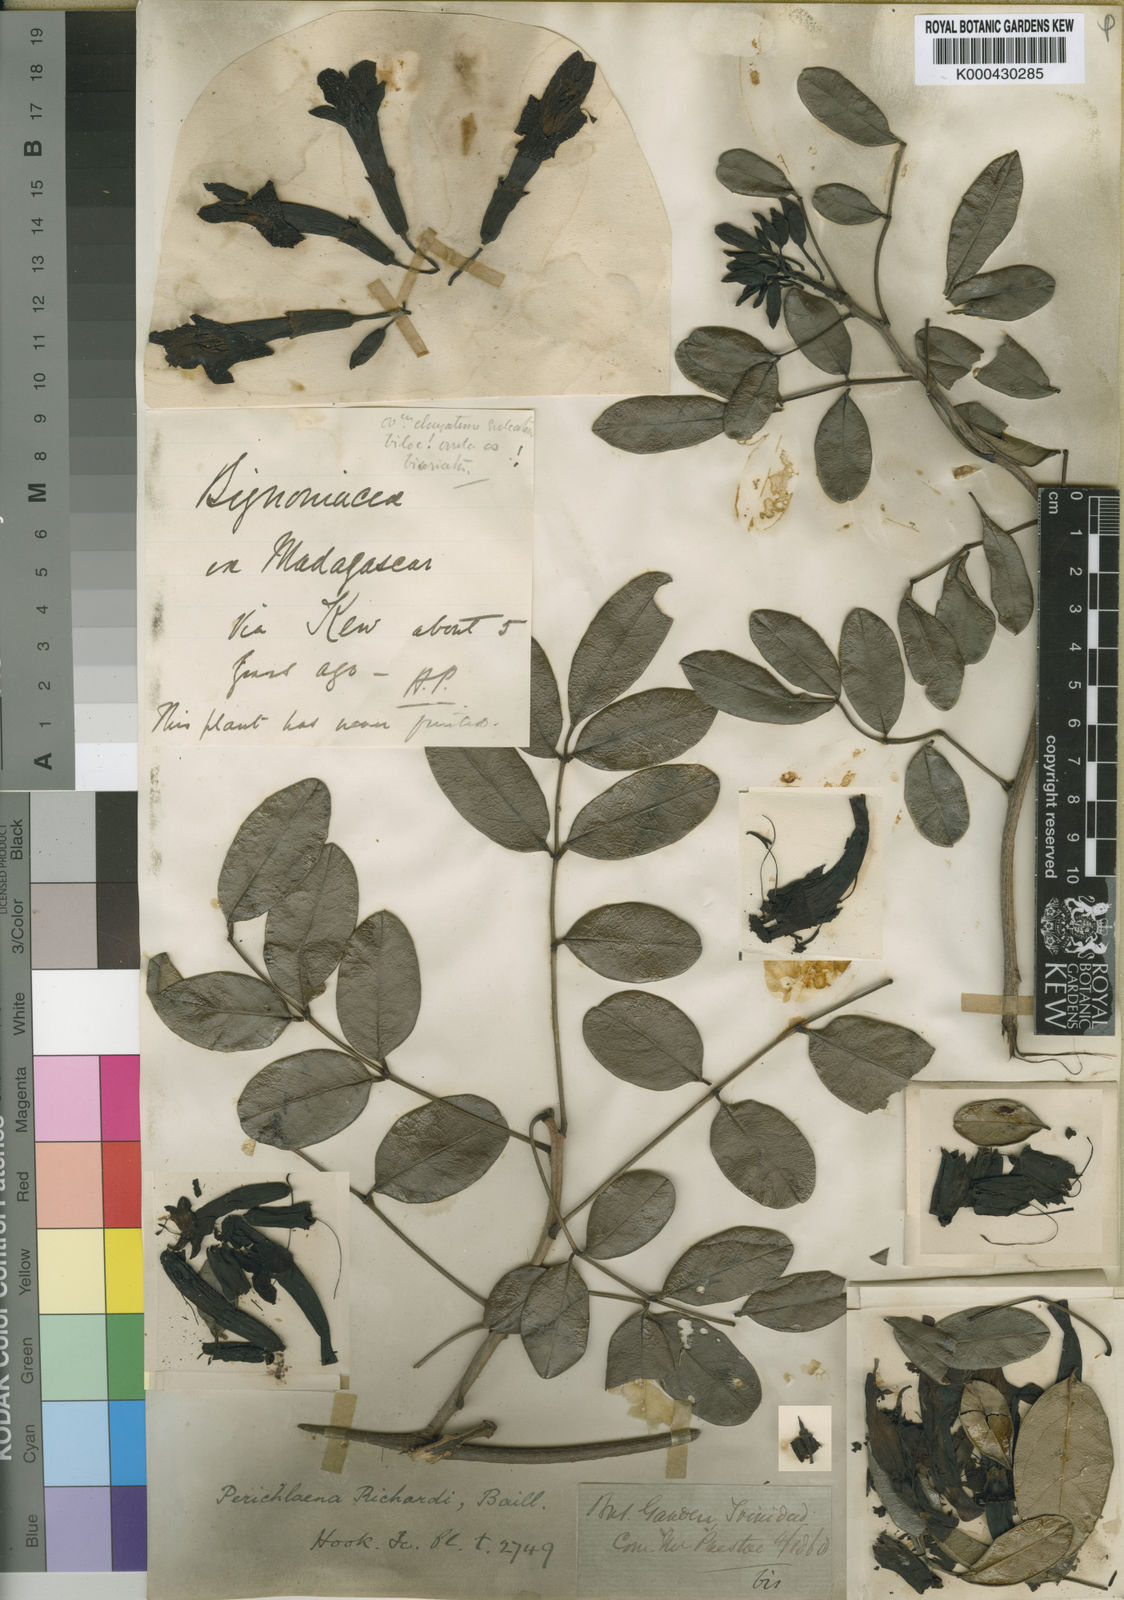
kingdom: Plantae
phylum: Tracheophyta
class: Magnoliopsida
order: Lamiales
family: Bignoniaceae
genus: Perichlaena
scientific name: Perichlaena richardii
